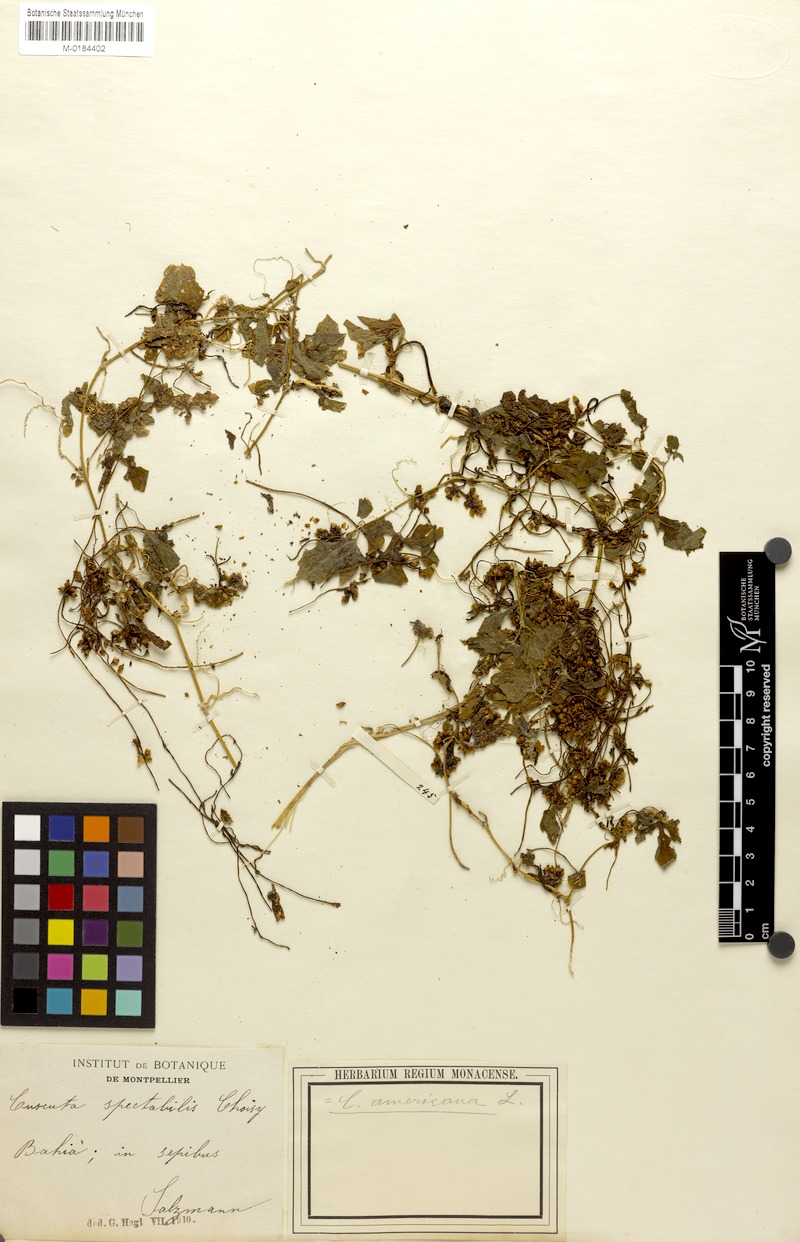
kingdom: Plantae
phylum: Tracheophyta
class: Magnoliopsida
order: Solanales
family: Convolvulaceae
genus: Cuscuta
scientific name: Cuscuta americana
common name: American dodder
